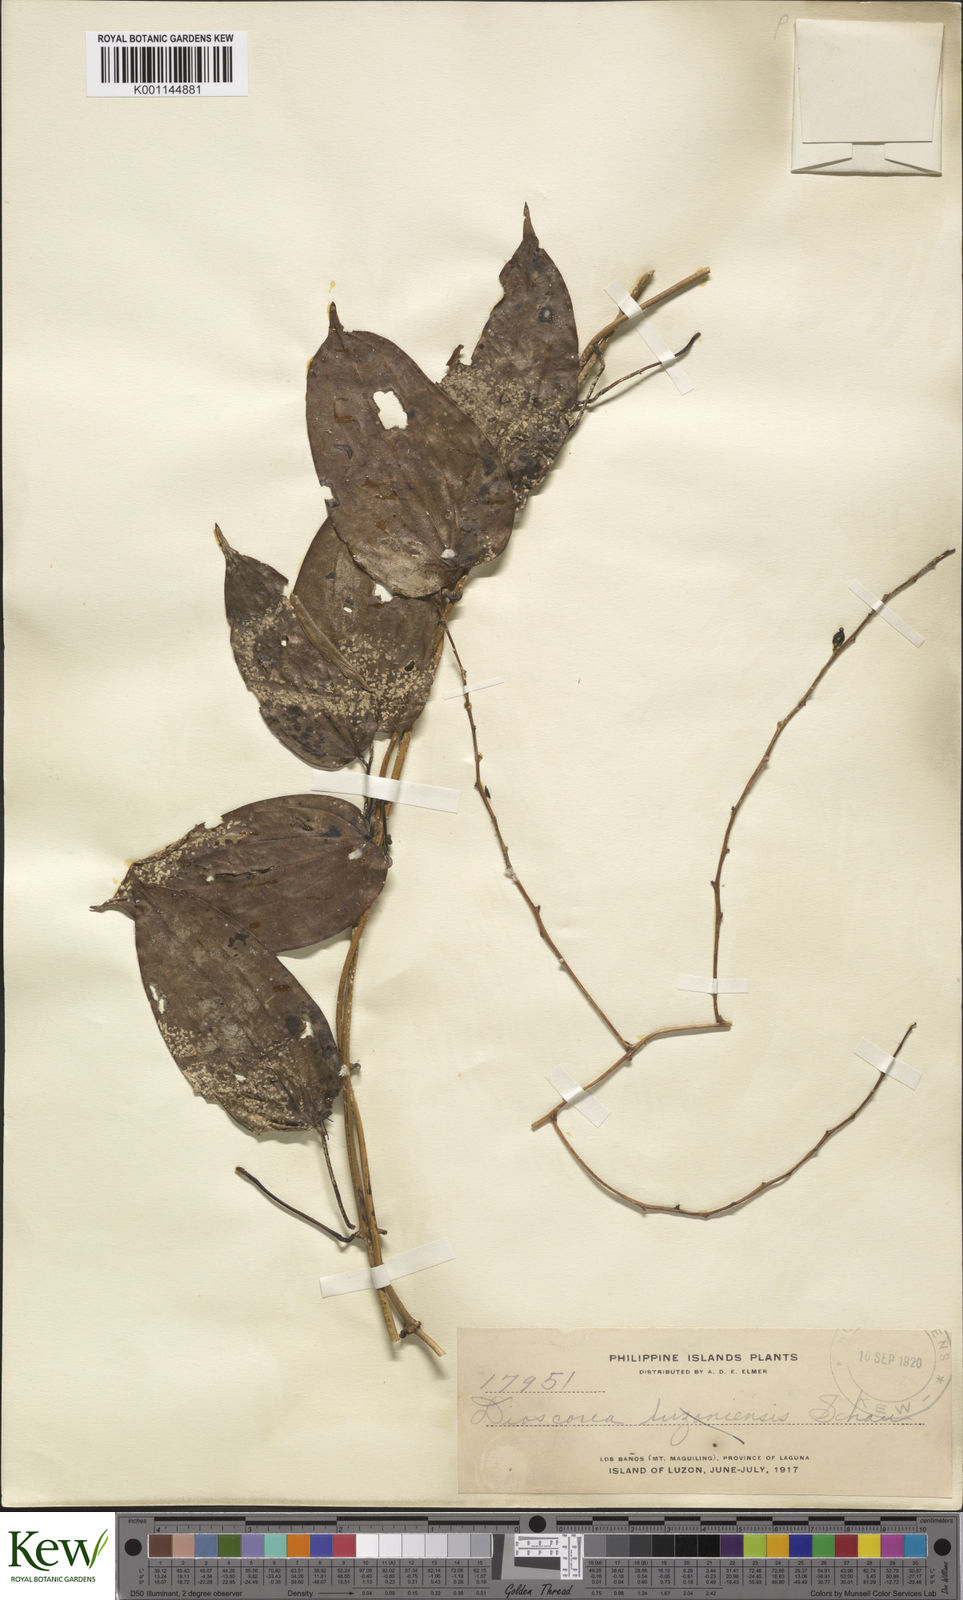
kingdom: Plantae
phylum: Tracheophyta
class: Liliopsida
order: Dioscoreales
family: Dioscoreaceae
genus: Dioscorea
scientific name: Dioscorea nummularia
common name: Pacific yam
